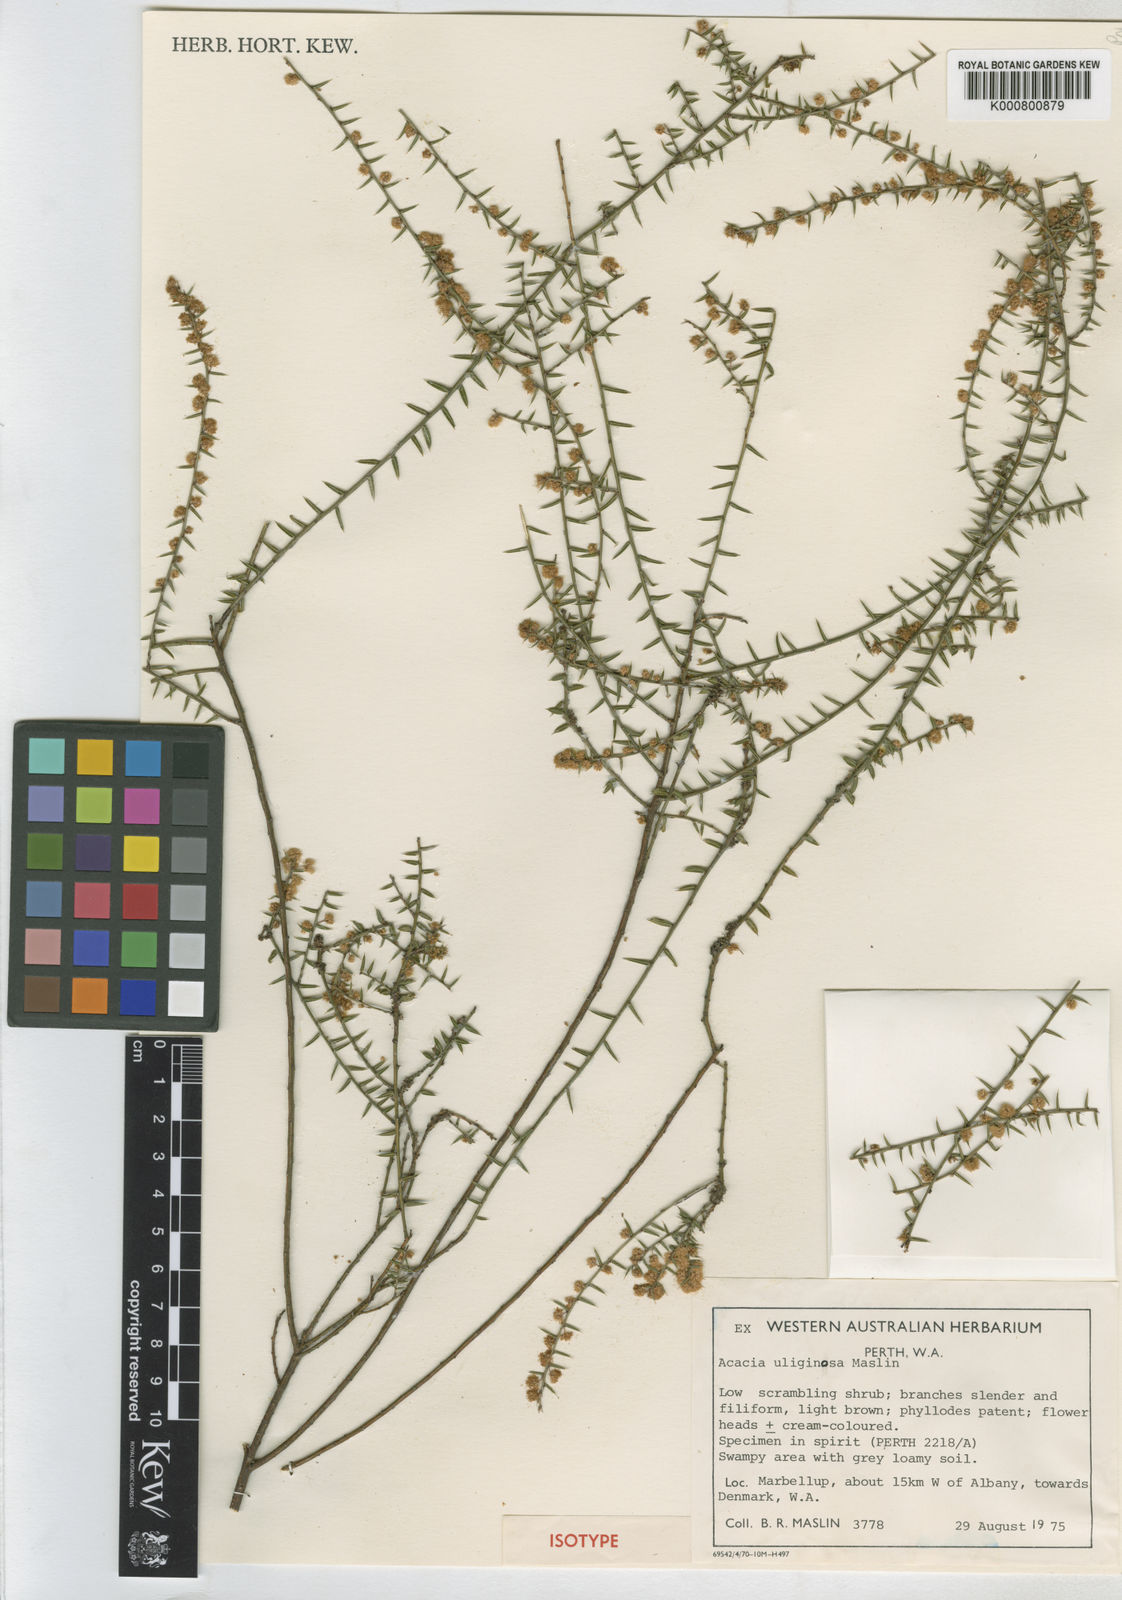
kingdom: Plantae
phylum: Tracheophyta
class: Magnoliopsida
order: Fabales
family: Fabaceae
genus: Acacia
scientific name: Acacia uliginosa
